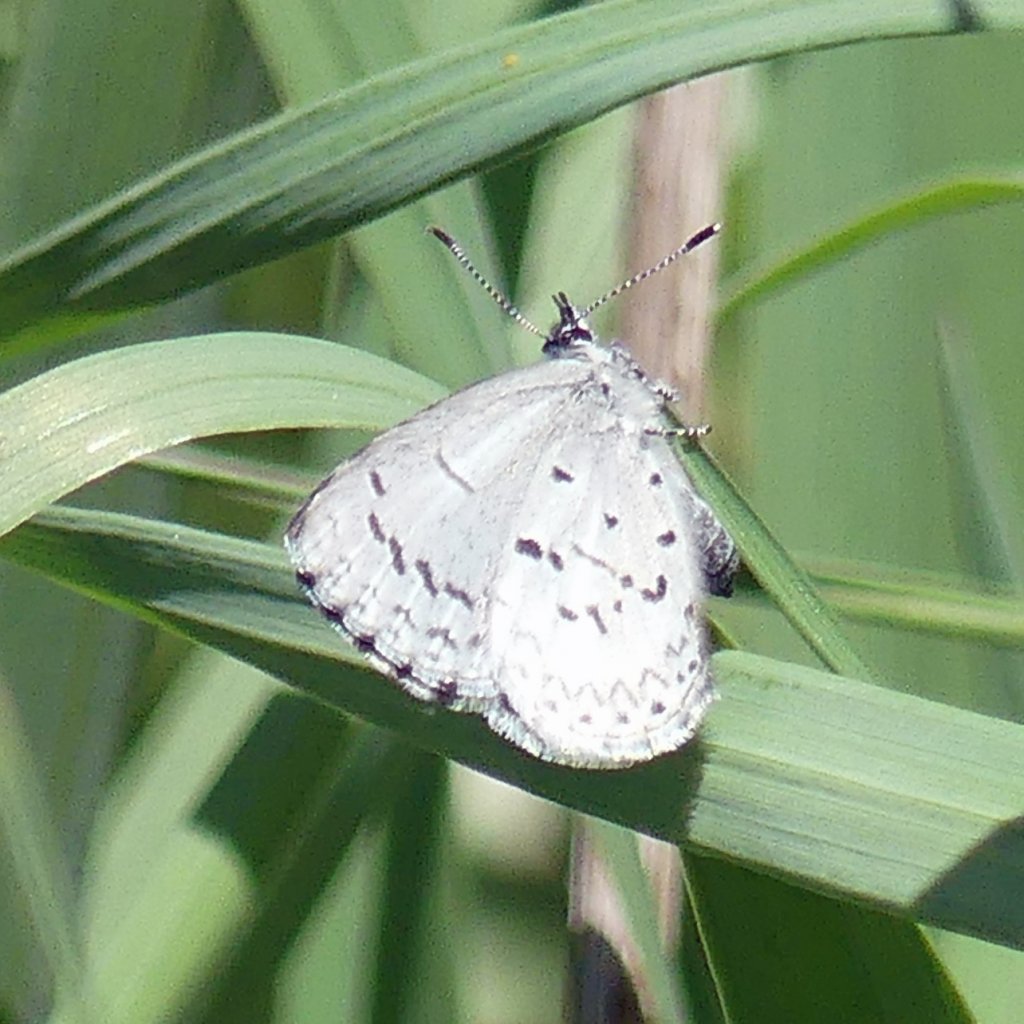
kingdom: Animalia
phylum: Arthropoda
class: Insecta
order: Lepidoptera
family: Lycaenidae
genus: Celastrina
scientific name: Celastrina
